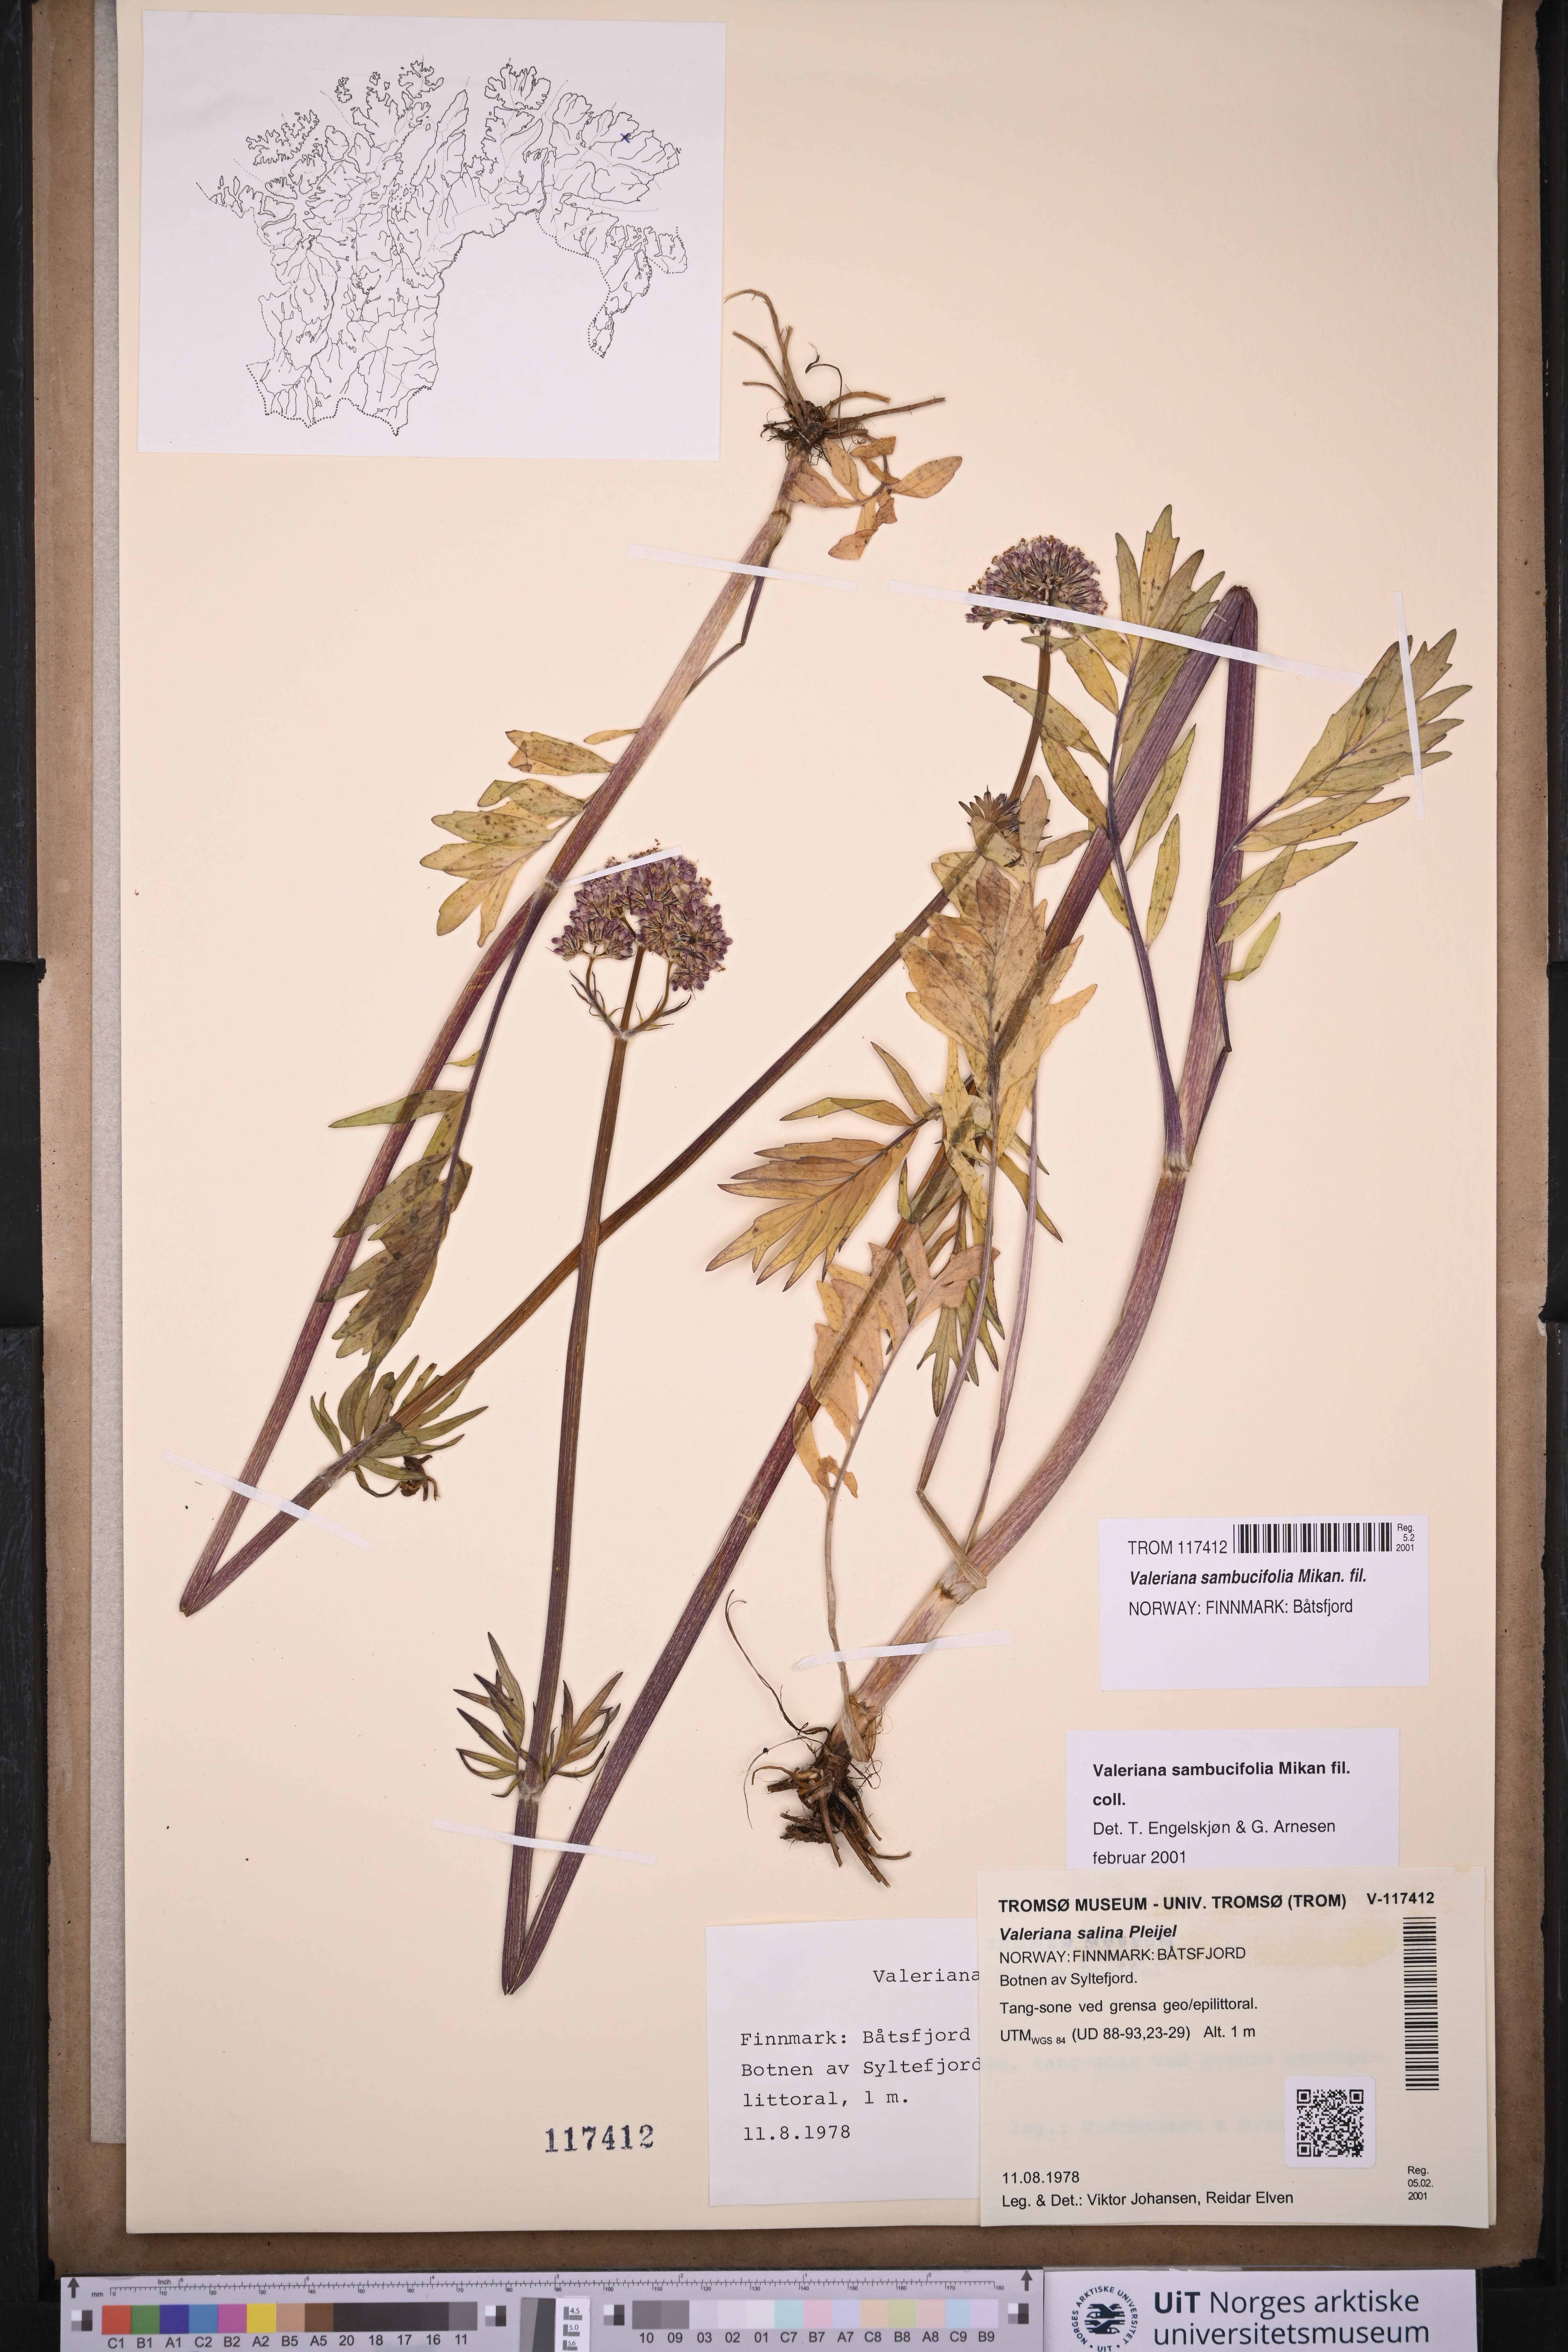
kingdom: Plantae
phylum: Tracheophyta
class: Magnoliopsida
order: Dipsacales
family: Caprifoliaceae
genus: Valeriana
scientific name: Valeriana excelsa
